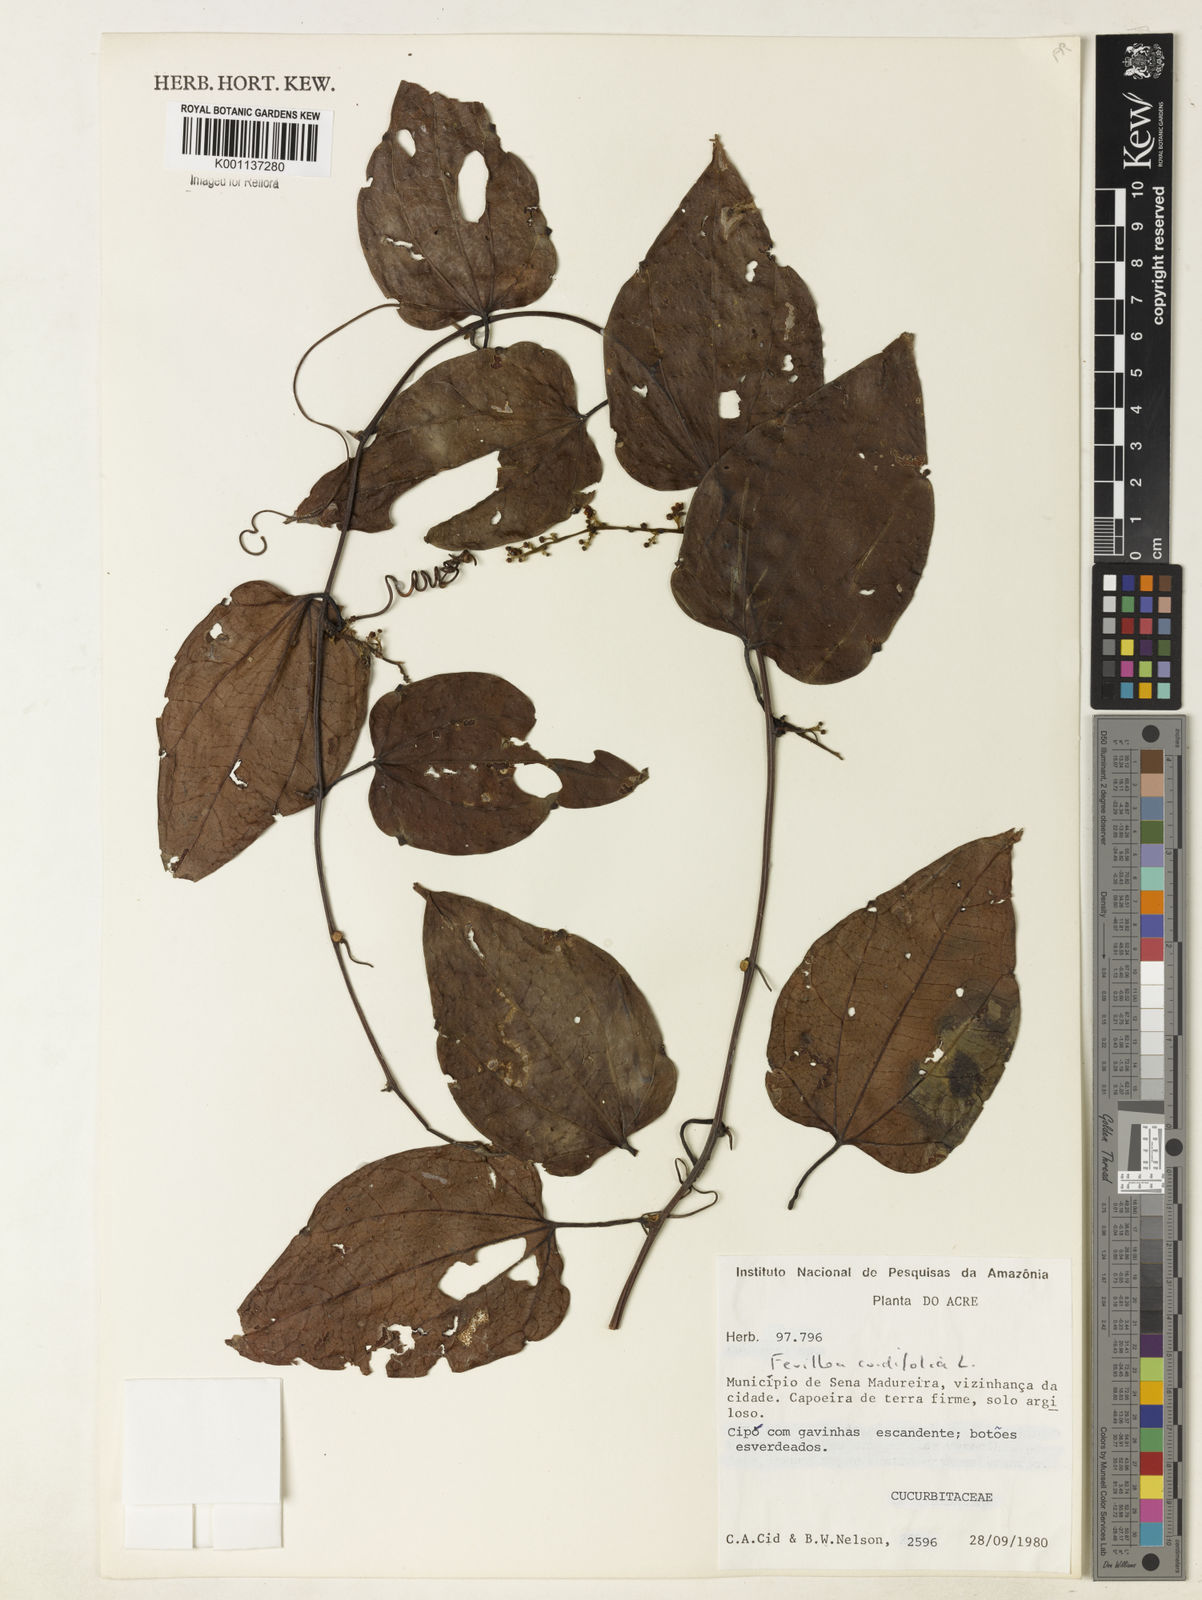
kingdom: Plantae
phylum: Tracheophyta
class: Magnoliopsida
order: Cucurbitales
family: Cucurbitaceae
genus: Fevillea
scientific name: Fevillea cordifolia
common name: Antidote-vine
